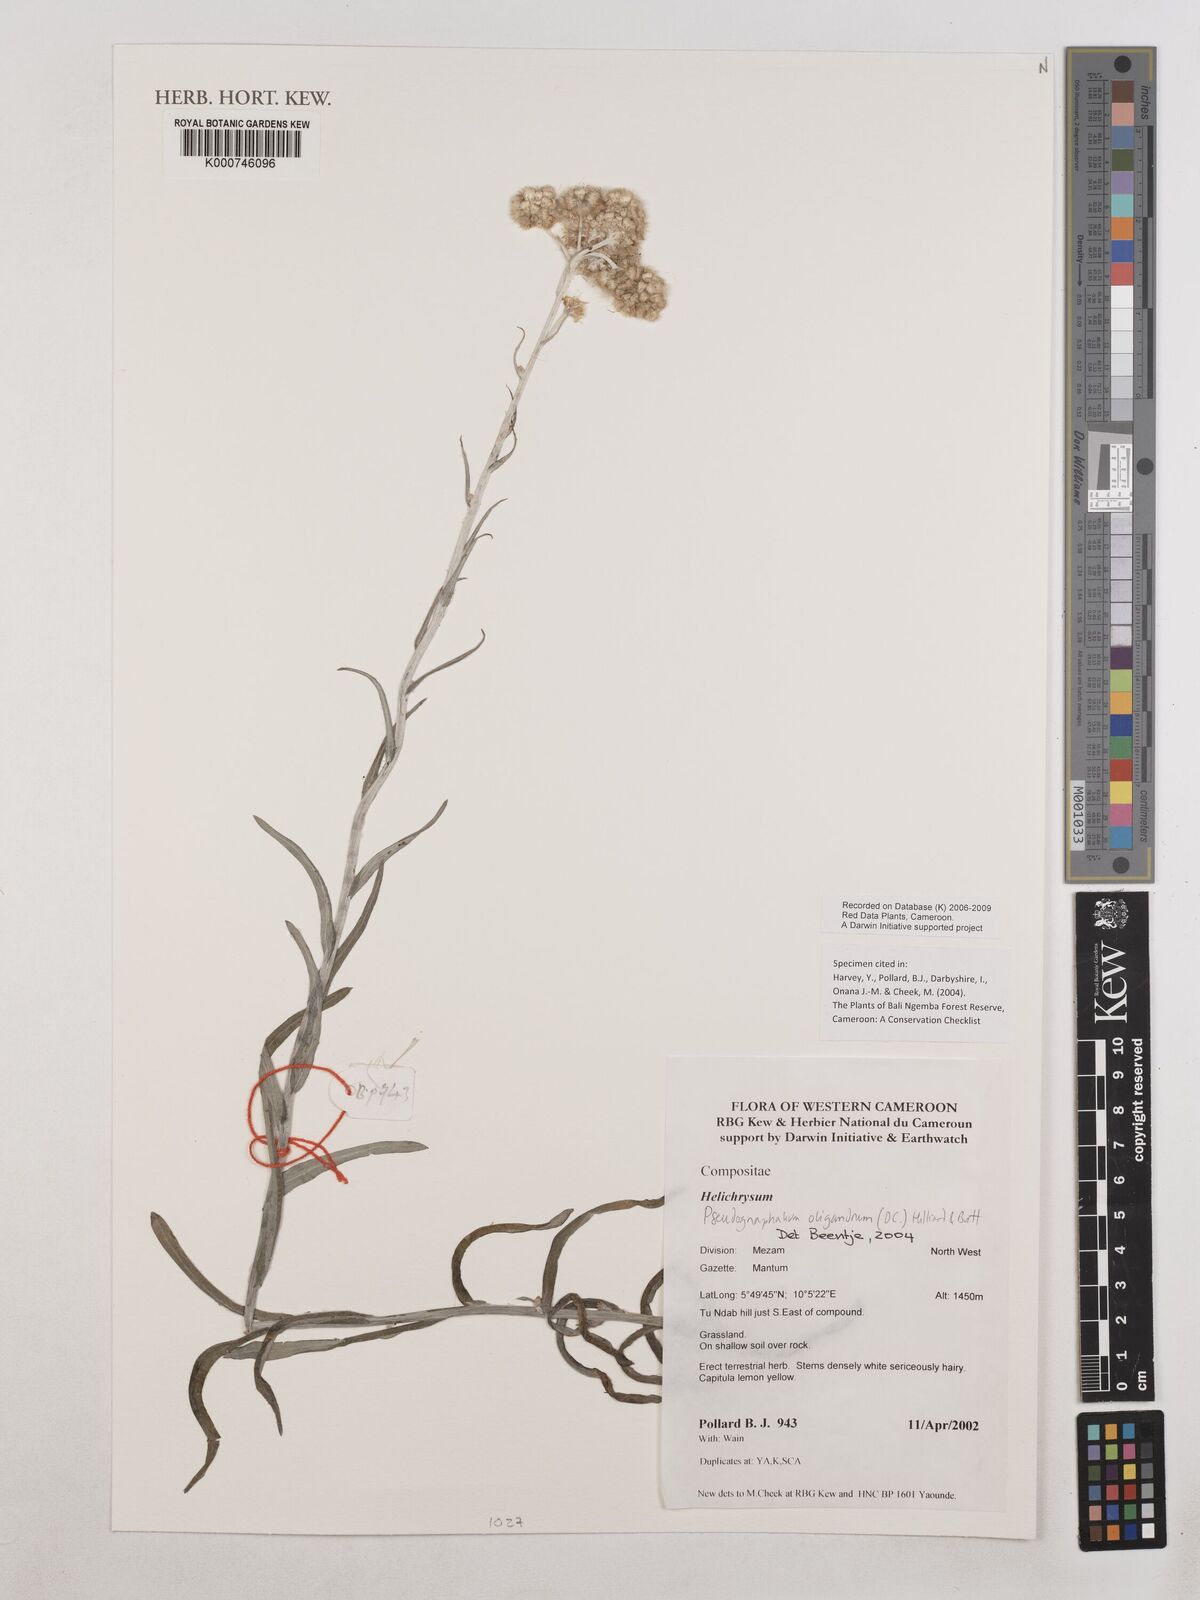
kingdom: Plantae
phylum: Tracheophyta
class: Magnoliopsida
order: Asterales
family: Asteraceae
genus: Pseudognaphalium
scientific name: Pseudognaphalium oligandrum
